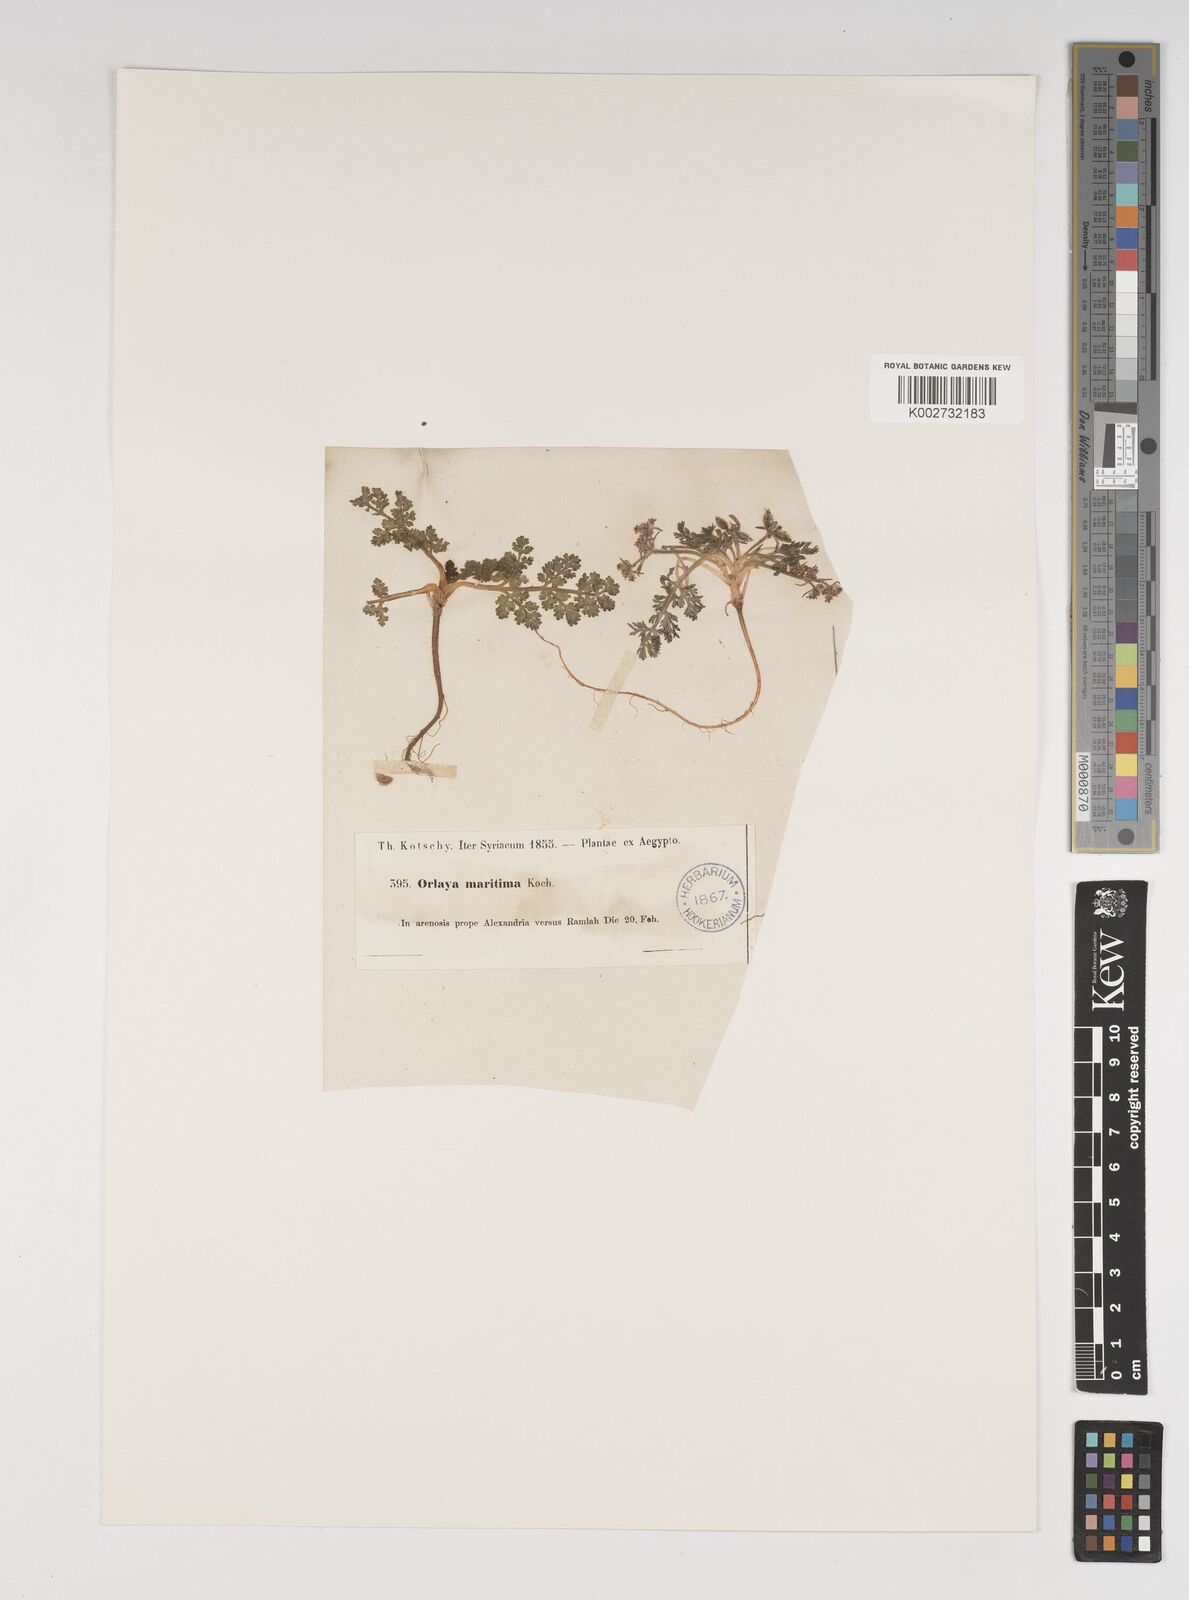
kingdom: Plantae
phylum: Tracheophyta
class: Magnoliopsida
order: Apiales
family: Apiaceae
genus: Daucus
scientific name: Daucus pumilus
